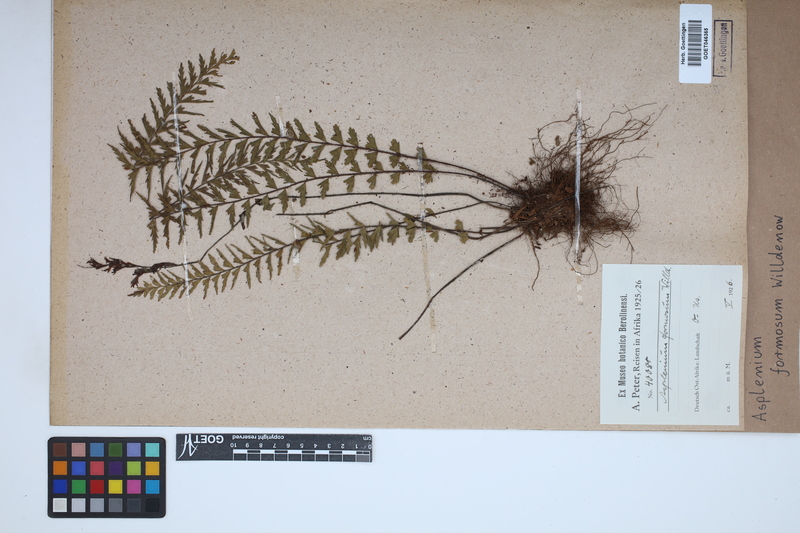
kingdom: Plantae
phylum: Tracheophyta
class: Polypodiopsida
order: Polypodiales
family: Aspleniaceae
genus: Asplenium
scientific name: Asplenium formosum
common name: Showy spleenwort
